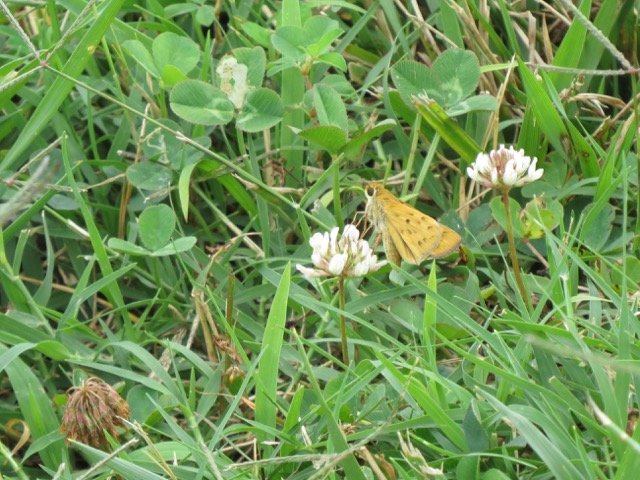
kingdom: Animalia
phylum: Arthropoda
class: Insecta
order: Lepidoptera
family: Hesperiidae
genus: Hylephila
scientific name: Hylephila phyleus
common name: Fiery Skipper
